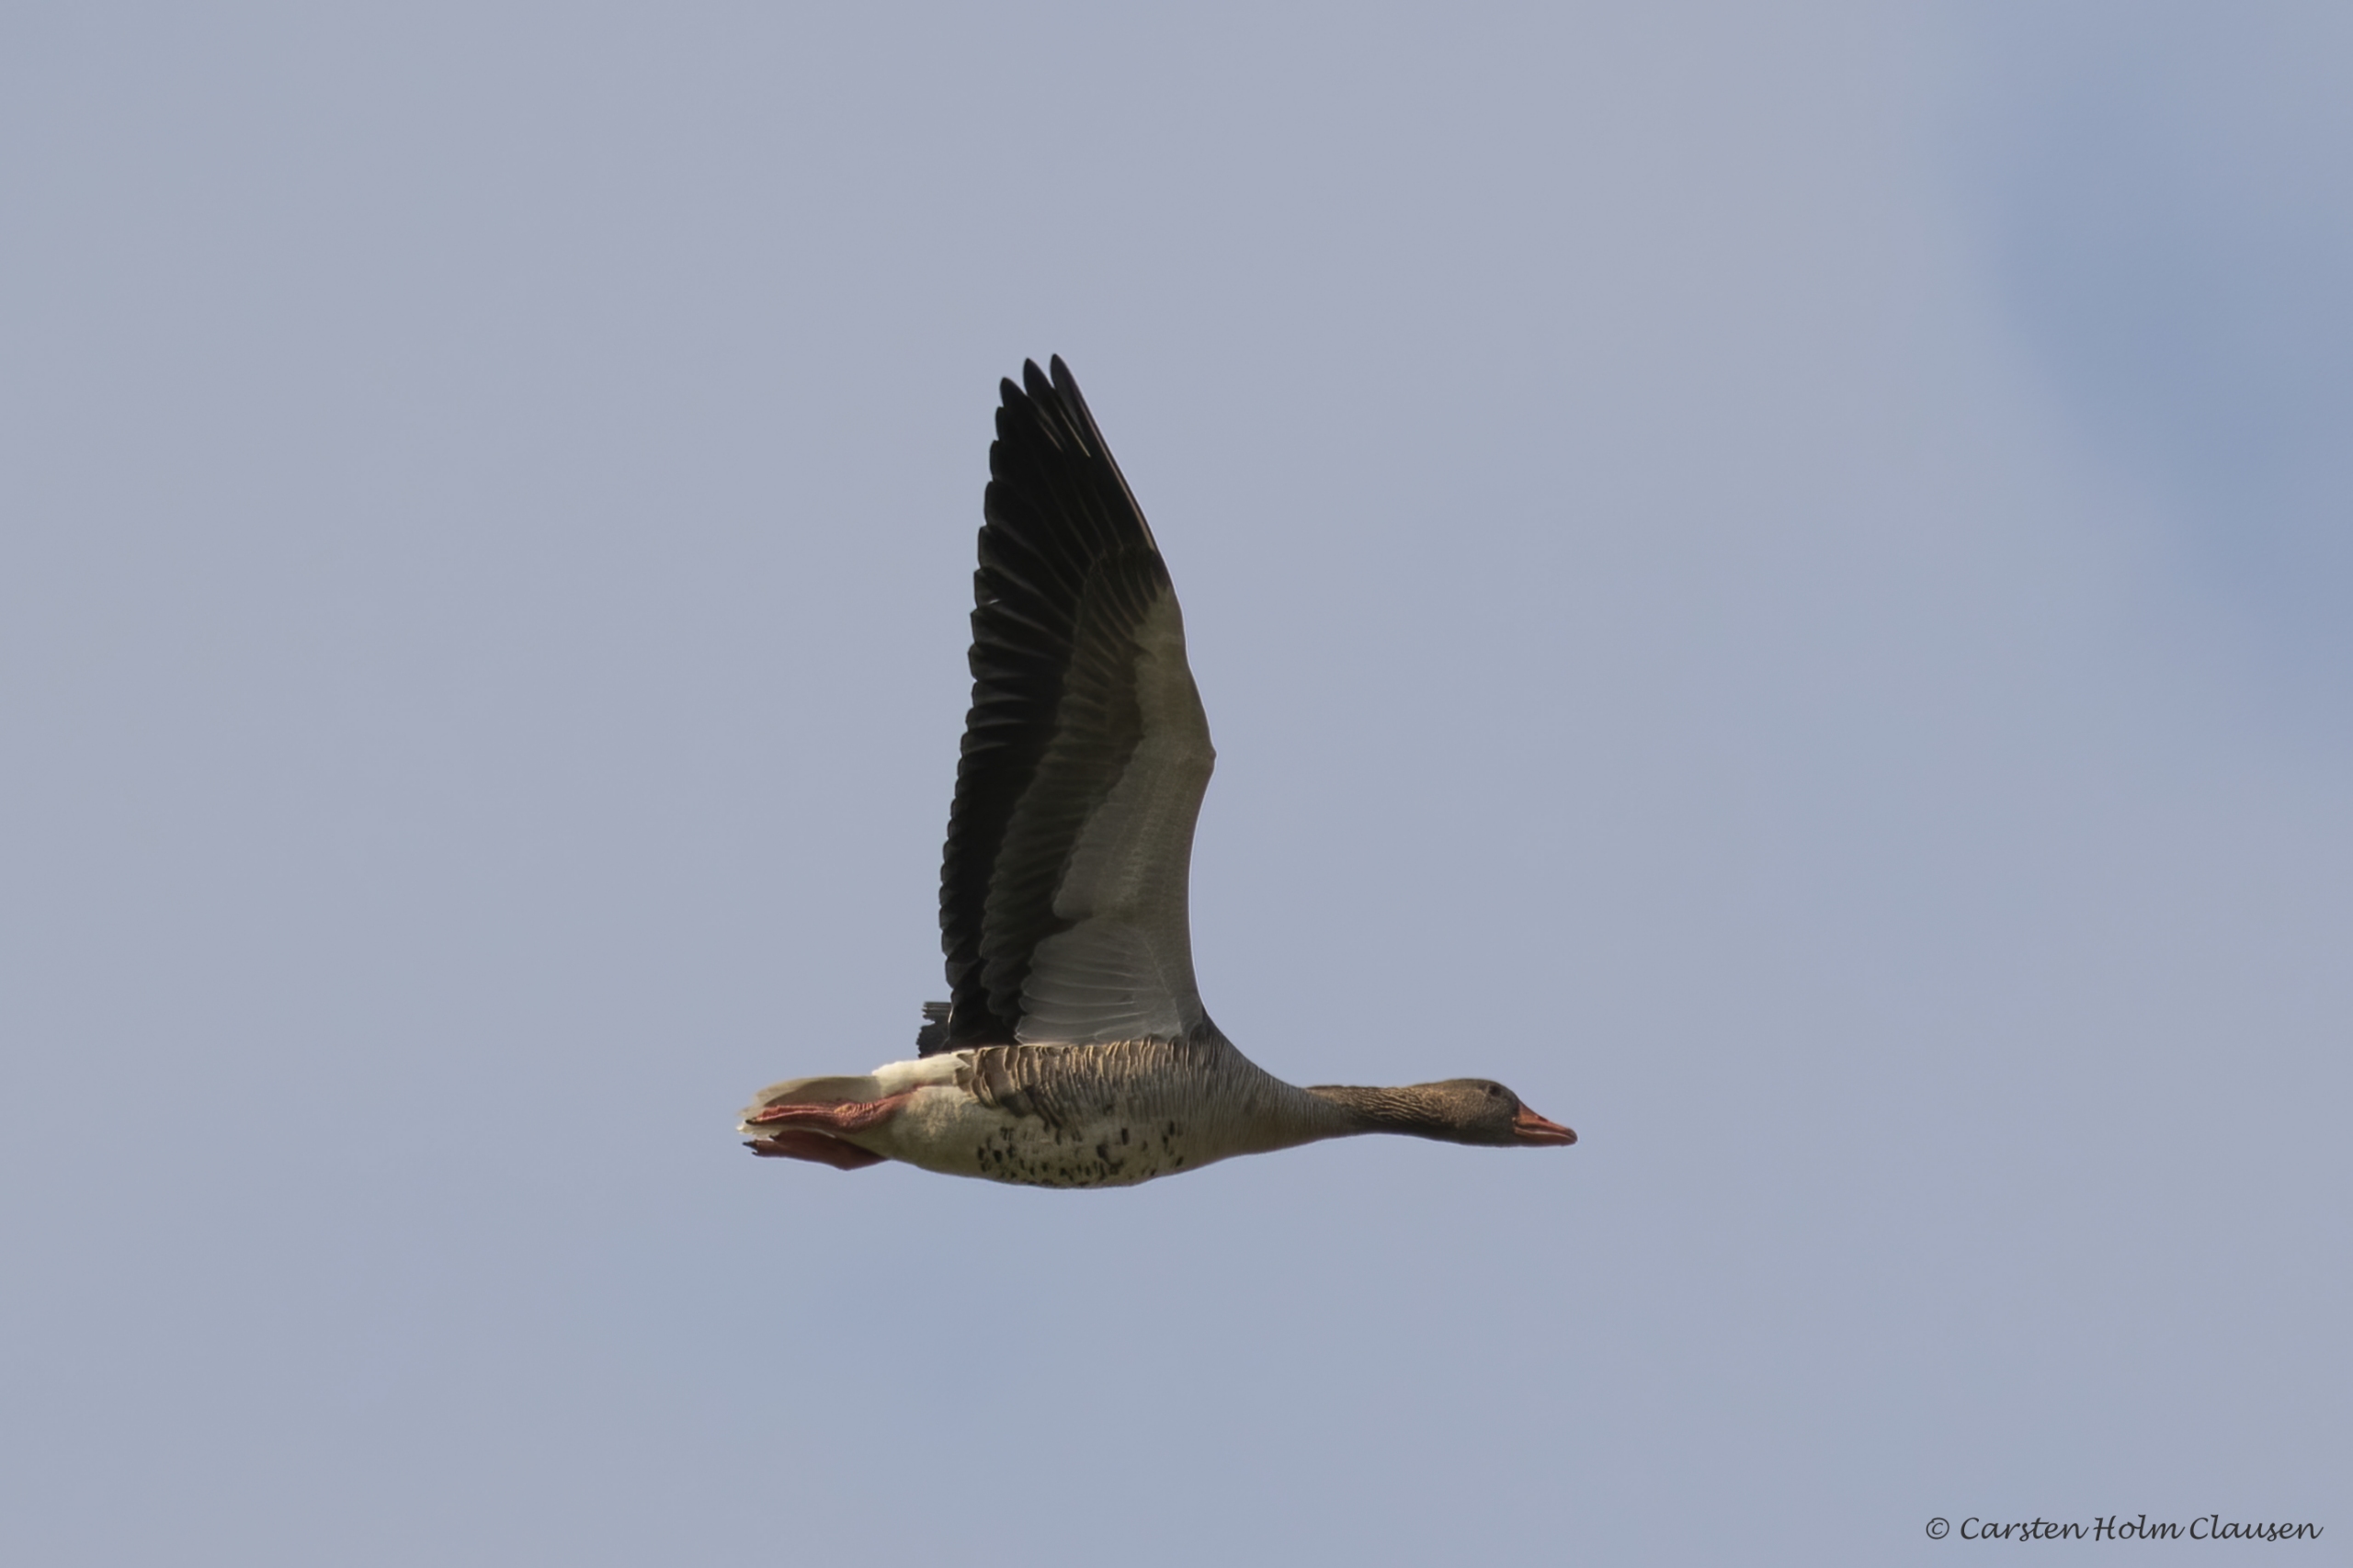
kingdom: Animalia
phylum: Chordata
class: Aves
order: Anseriformes
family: Anatidae
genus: Anser
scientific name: Anser anser
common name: Grågås
